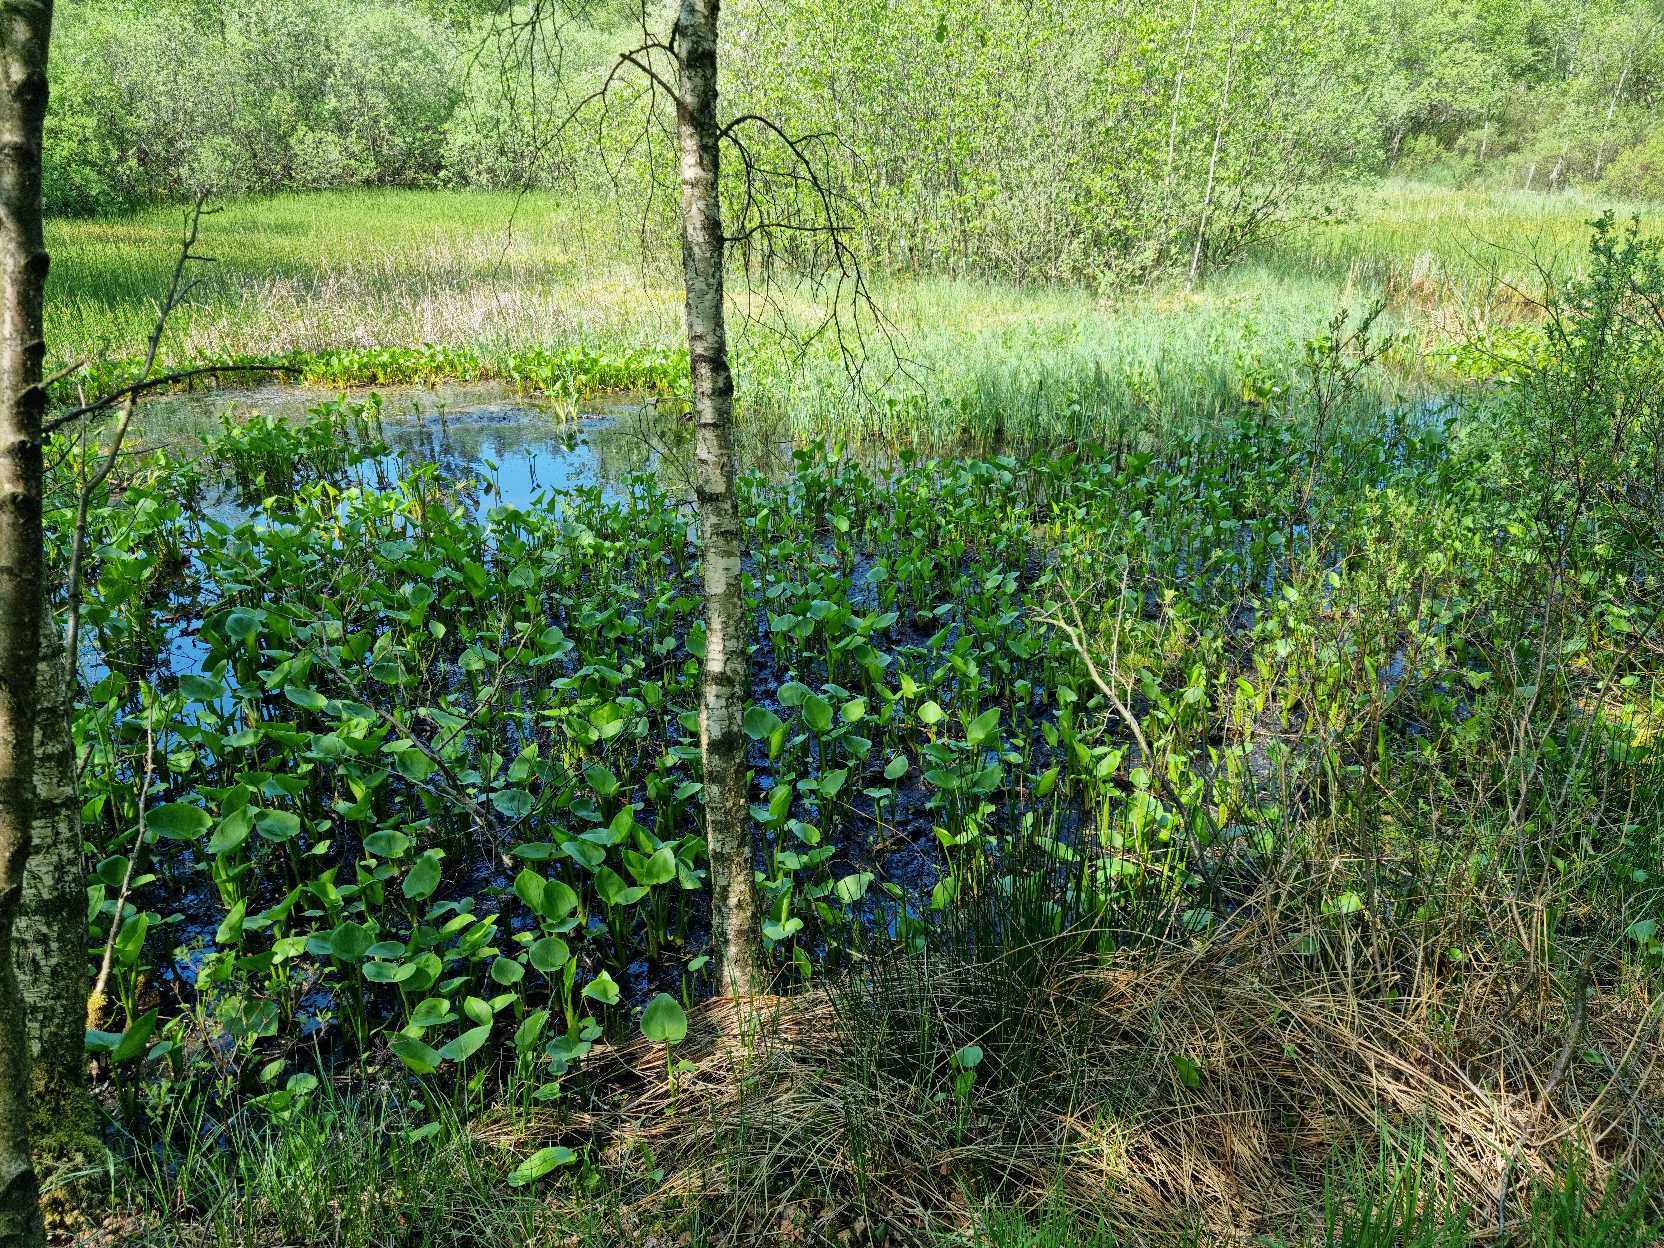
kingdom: Plantae
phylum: Tracheophyta
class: Liliopsida
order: Alismatales
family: Araceae
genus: Calla
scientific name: Calla palustris
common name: Kærmysse
